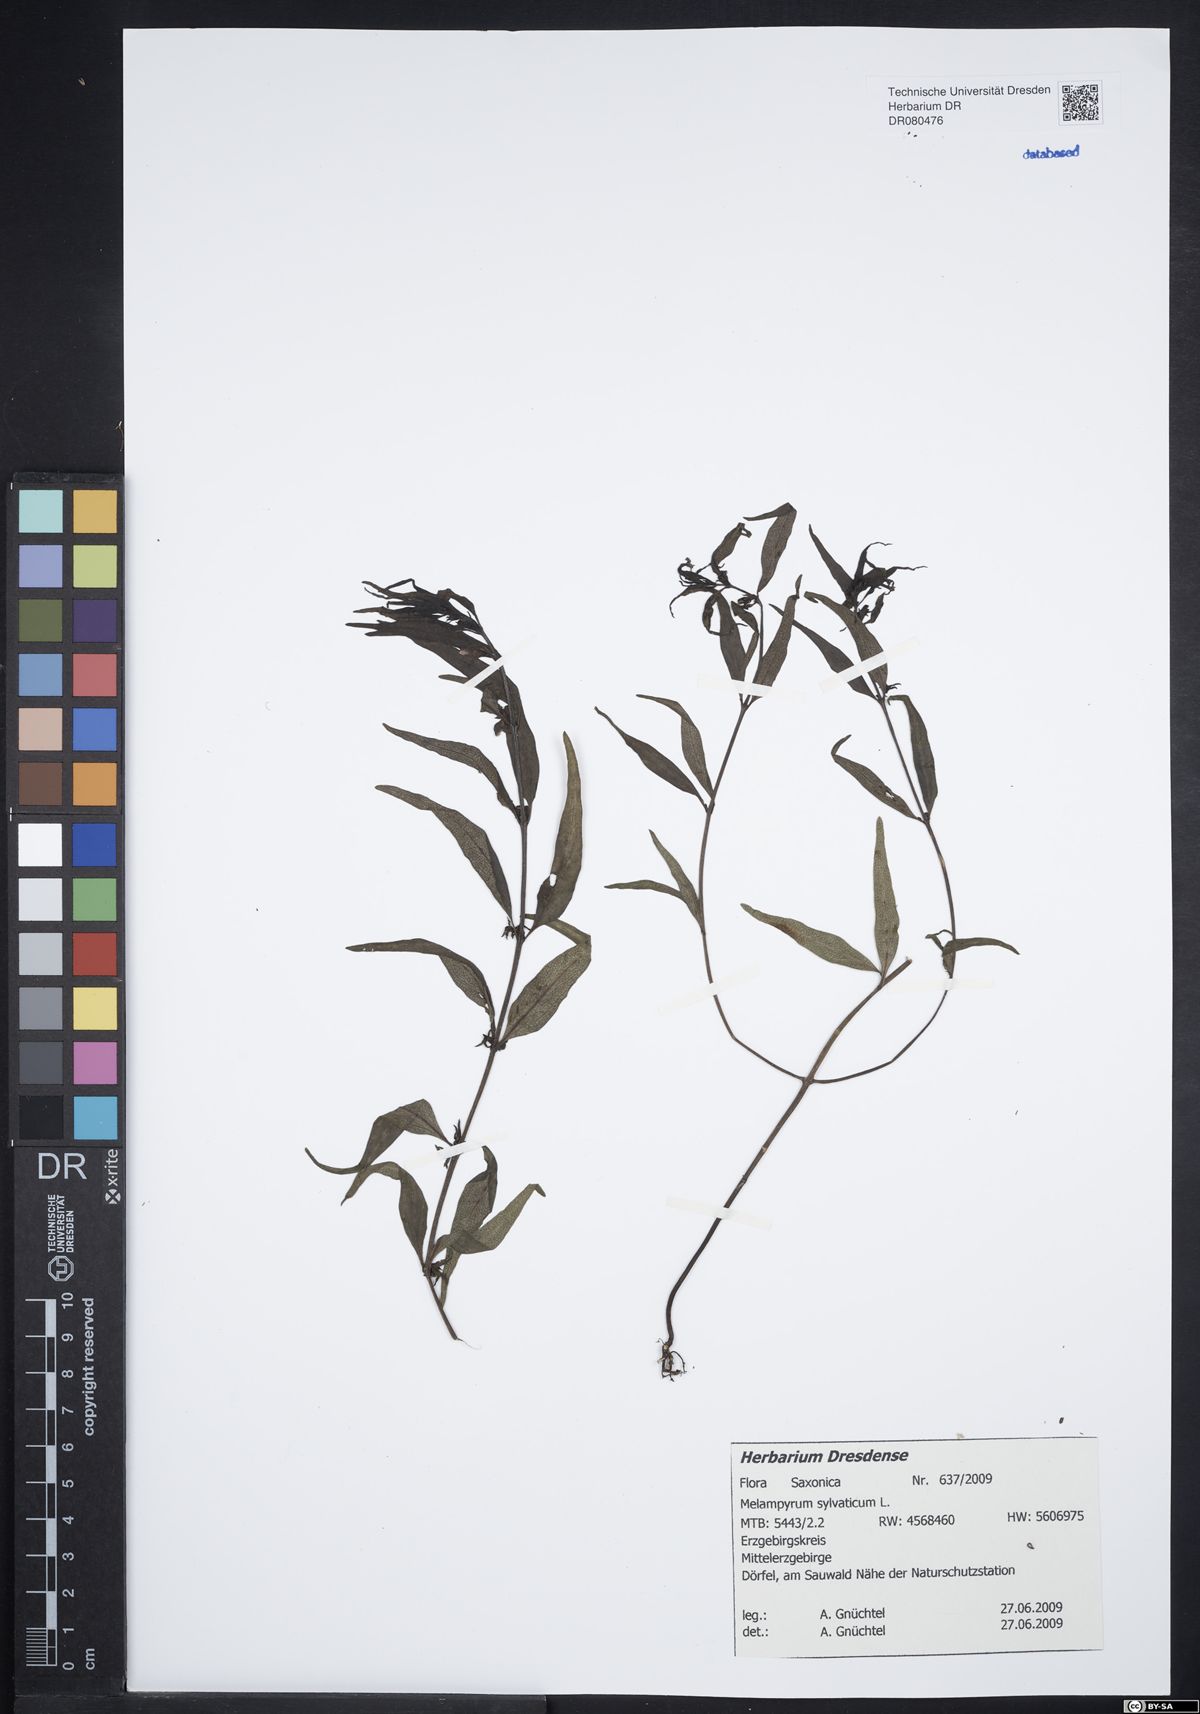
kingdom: Plantae
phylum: Tracheophyta
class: Magnoliopsida
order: Lamiales
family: Orobanchaceae
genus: Melampyrum
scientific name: Melampyrum sylvaticum
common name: Small cow-wheat
